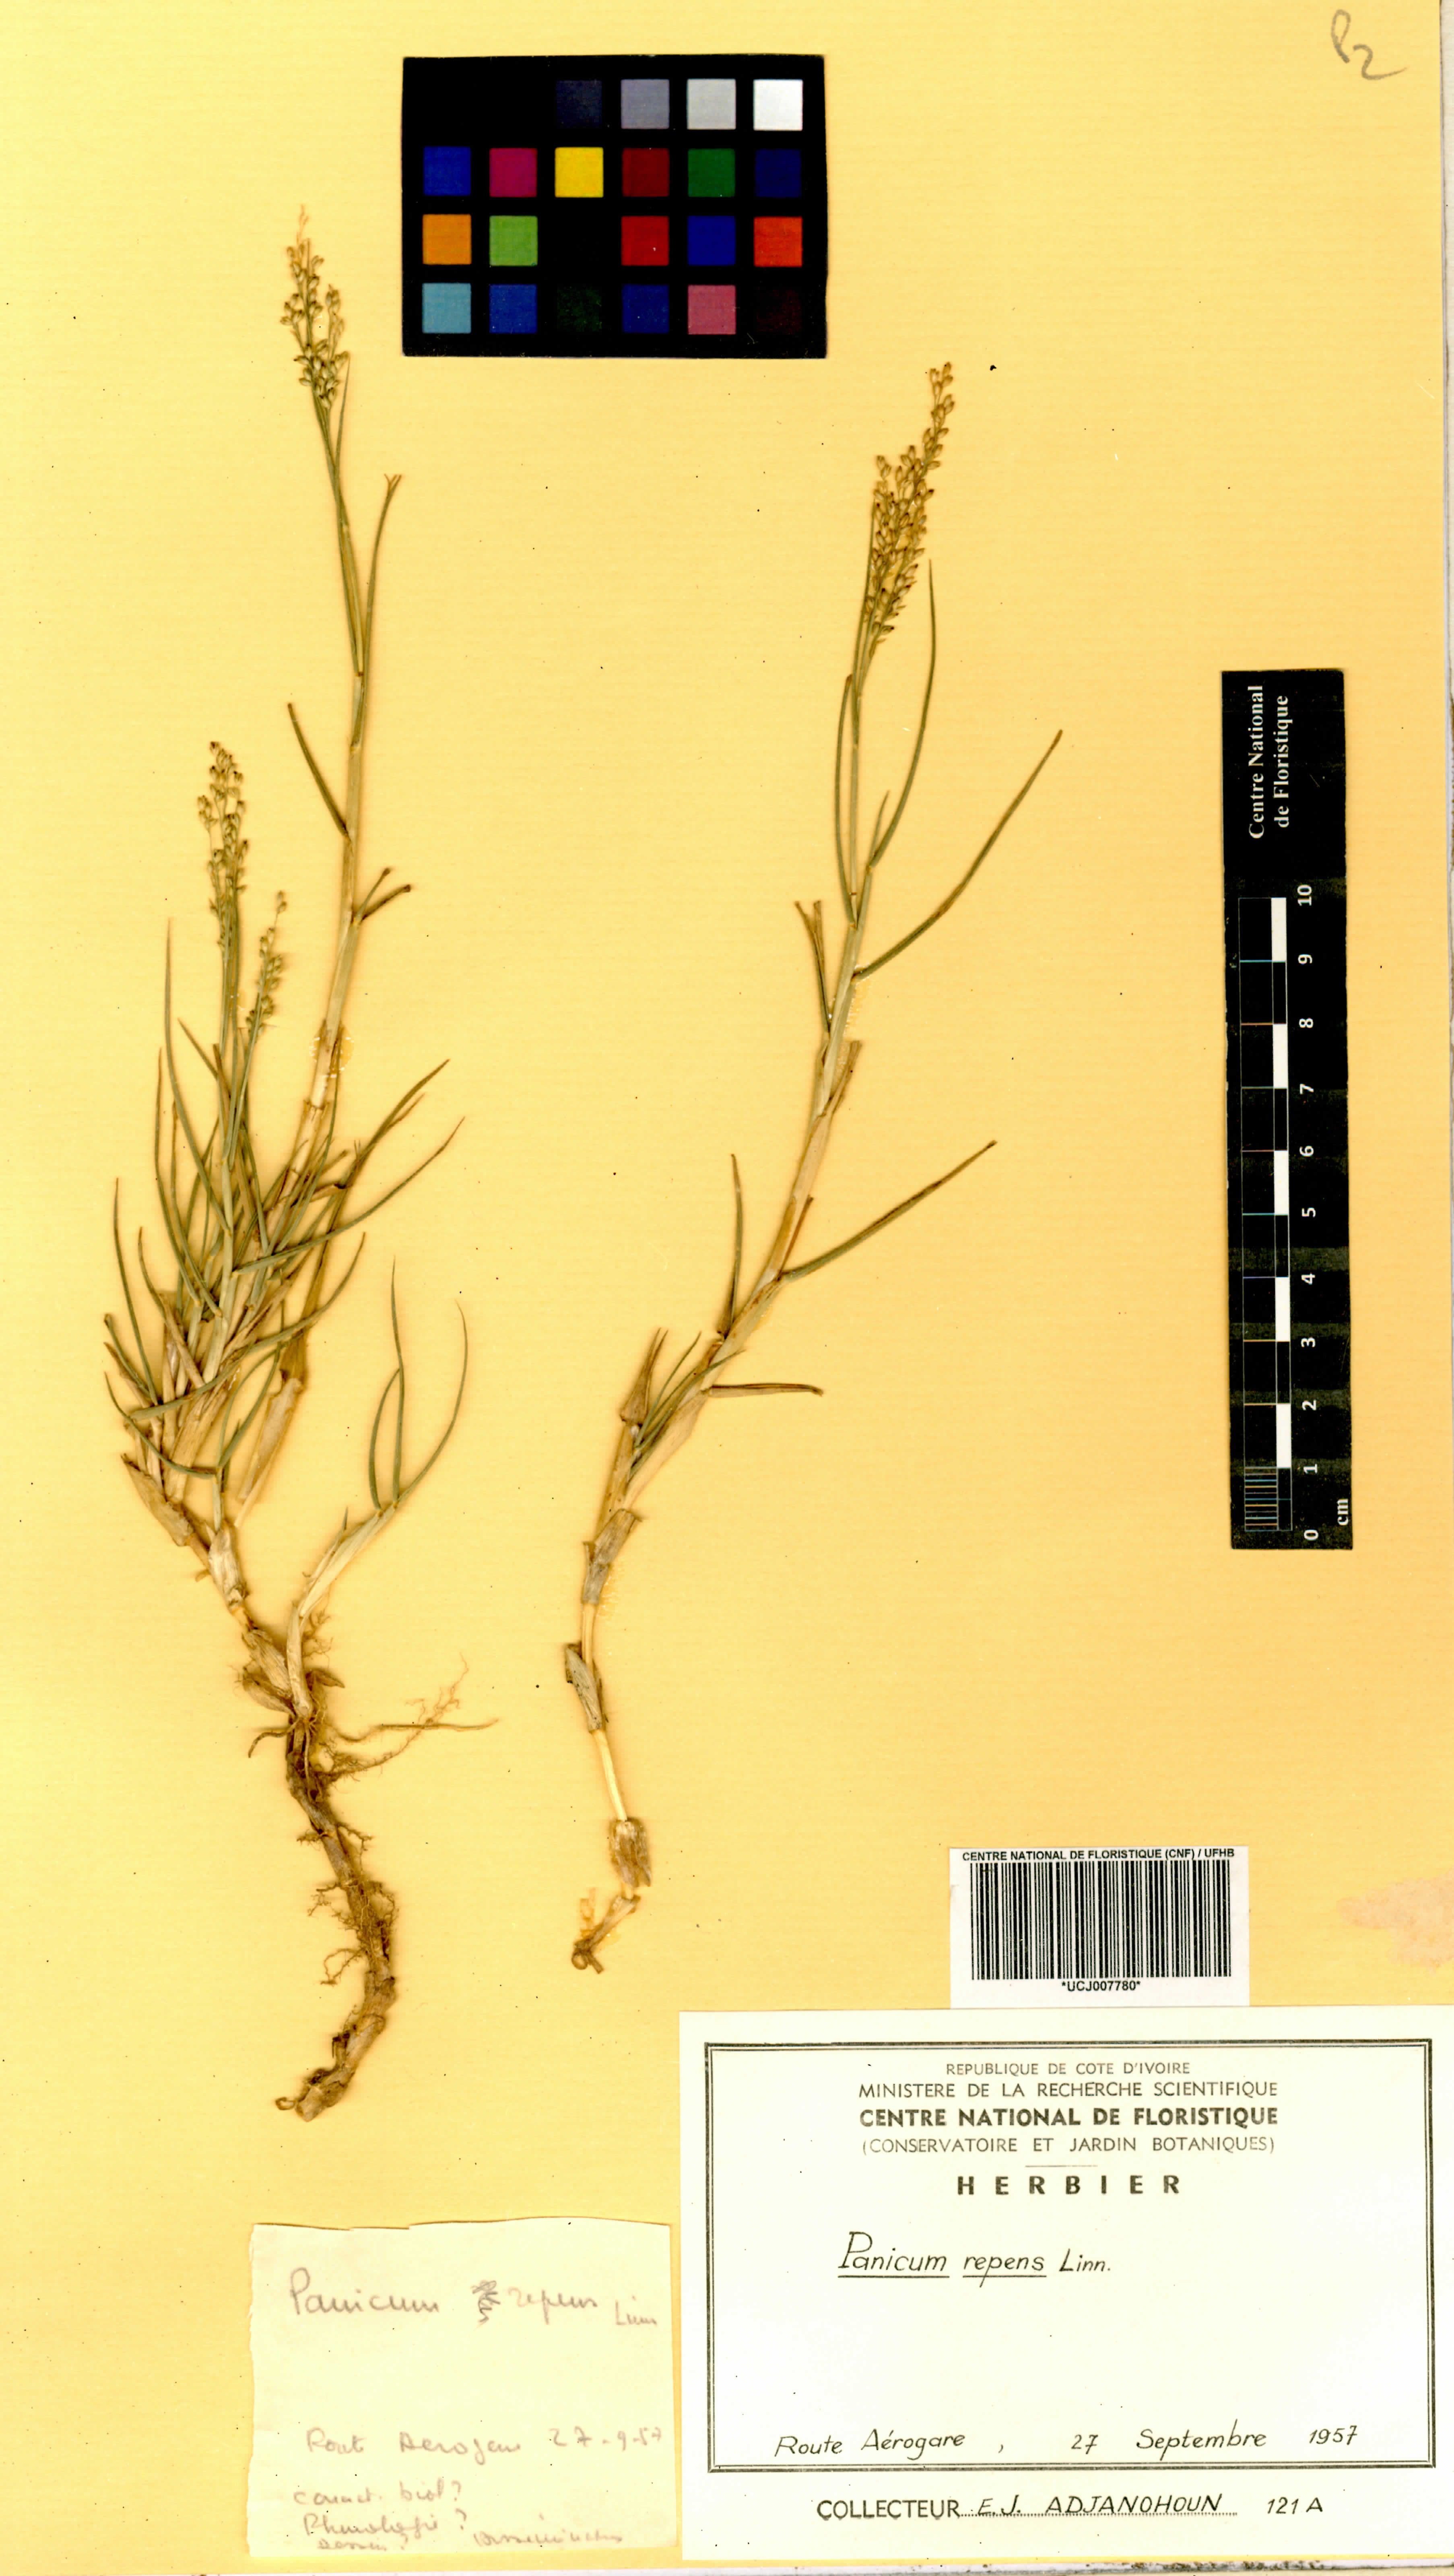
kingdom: Plantae
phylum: Tracheophyta
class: Liliopsida
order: Poales
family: Poaceae
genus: Panicum
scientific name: Panicum repens
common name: Torpedo grass
